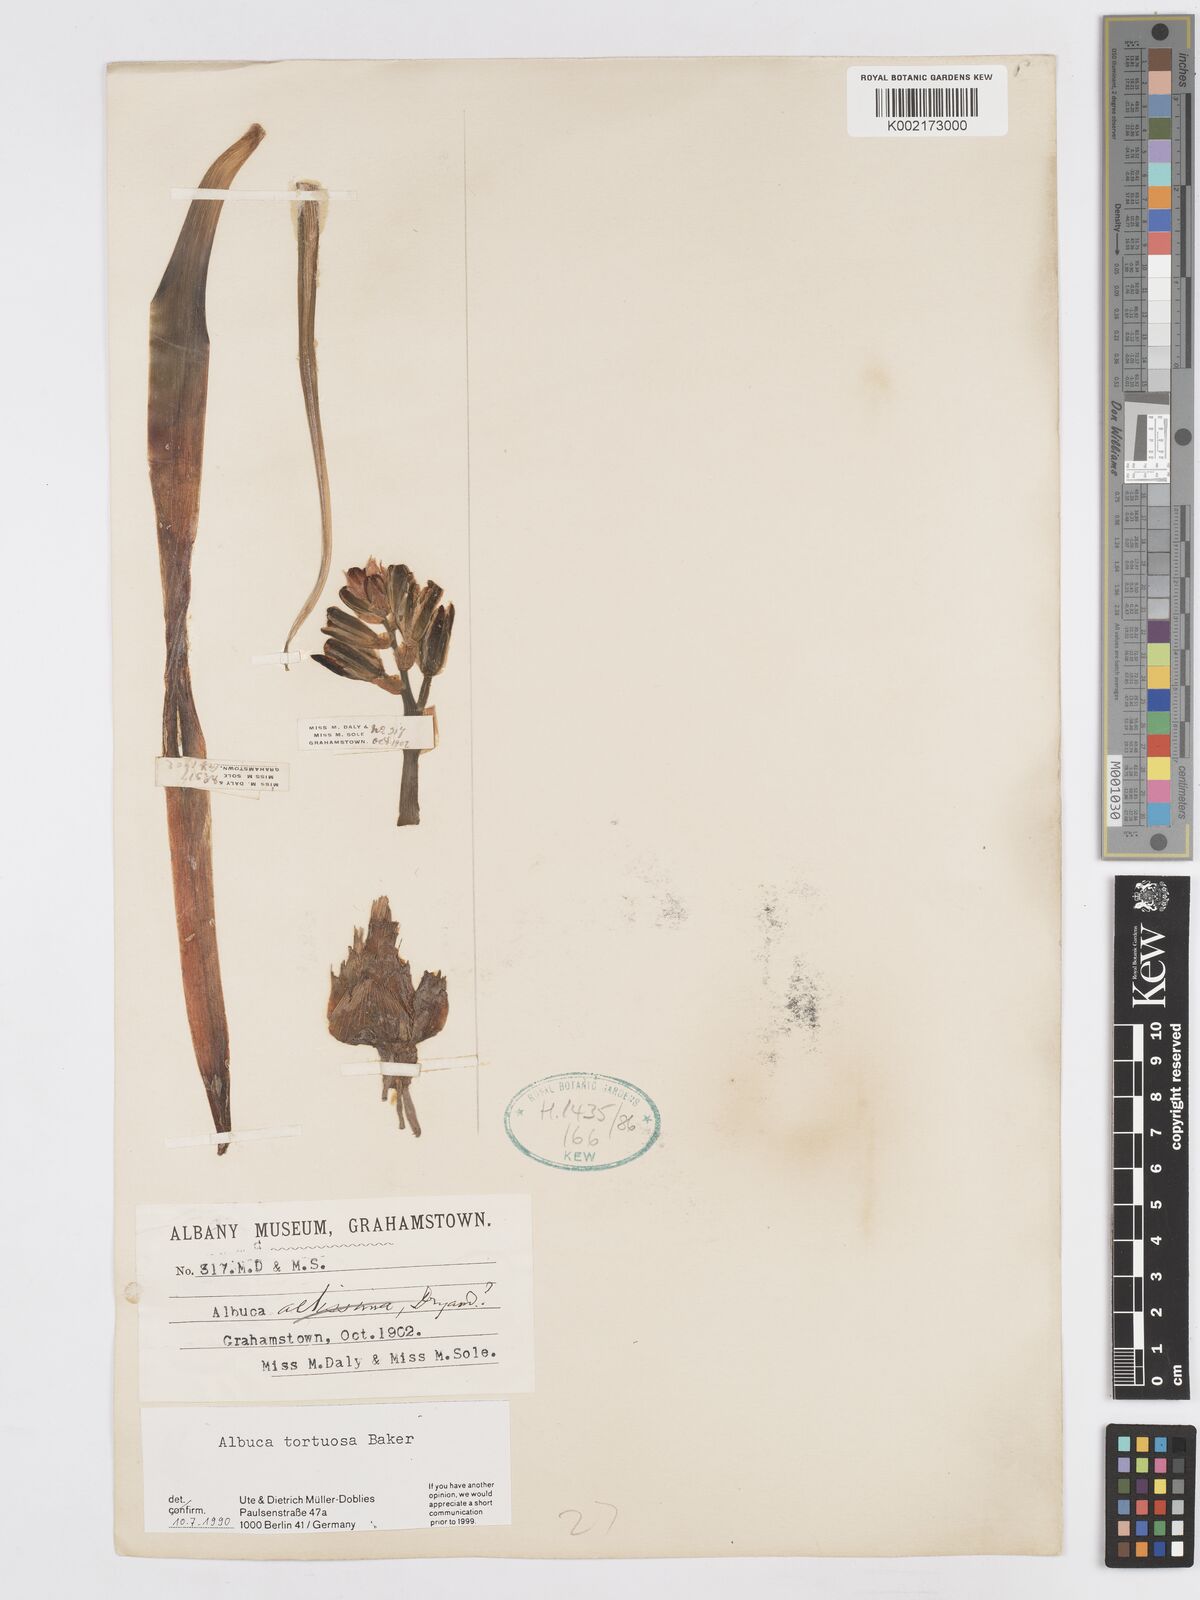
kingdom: Plantae
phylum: Tracheophyta
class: Liliopsida
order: Asparagales
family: Asparagaceae
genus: Albuca
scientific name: Albuca tortuosa
